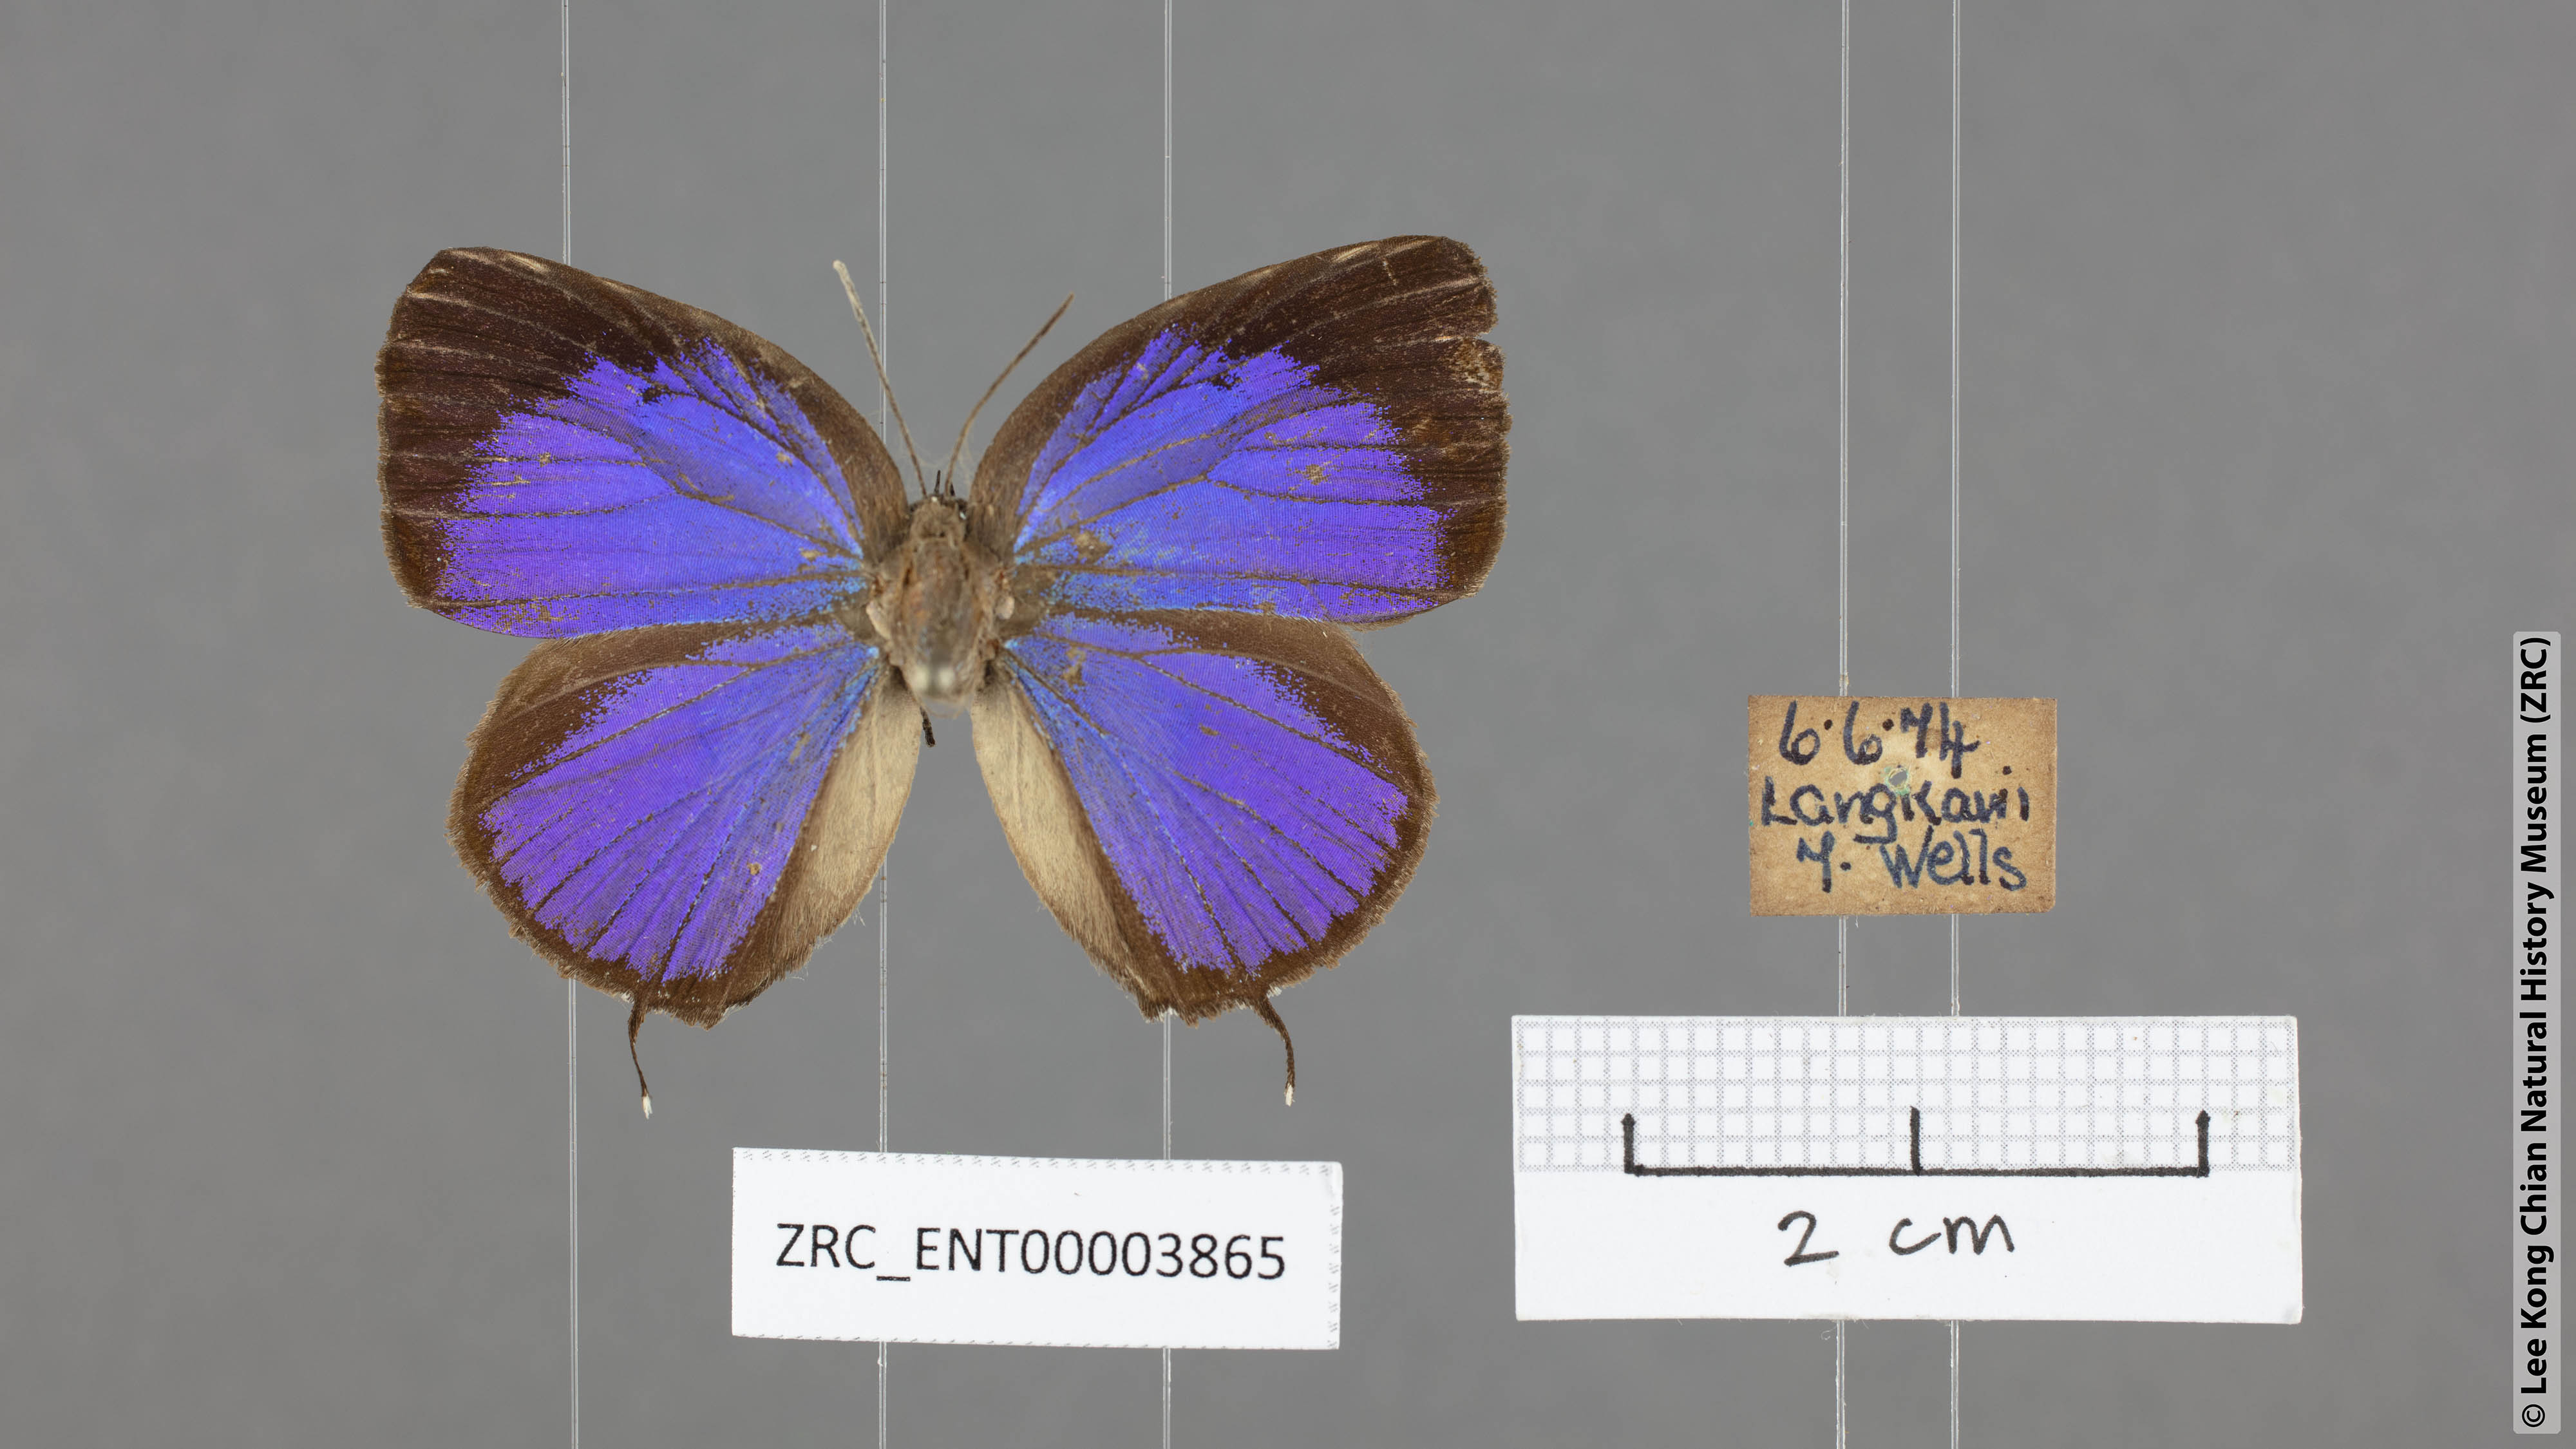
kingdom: Animalia
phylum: Arthropoda
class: Insecta
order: Lepidoptera
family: Lycaenidae
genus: Arhopala
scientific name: Arhopala atosia
